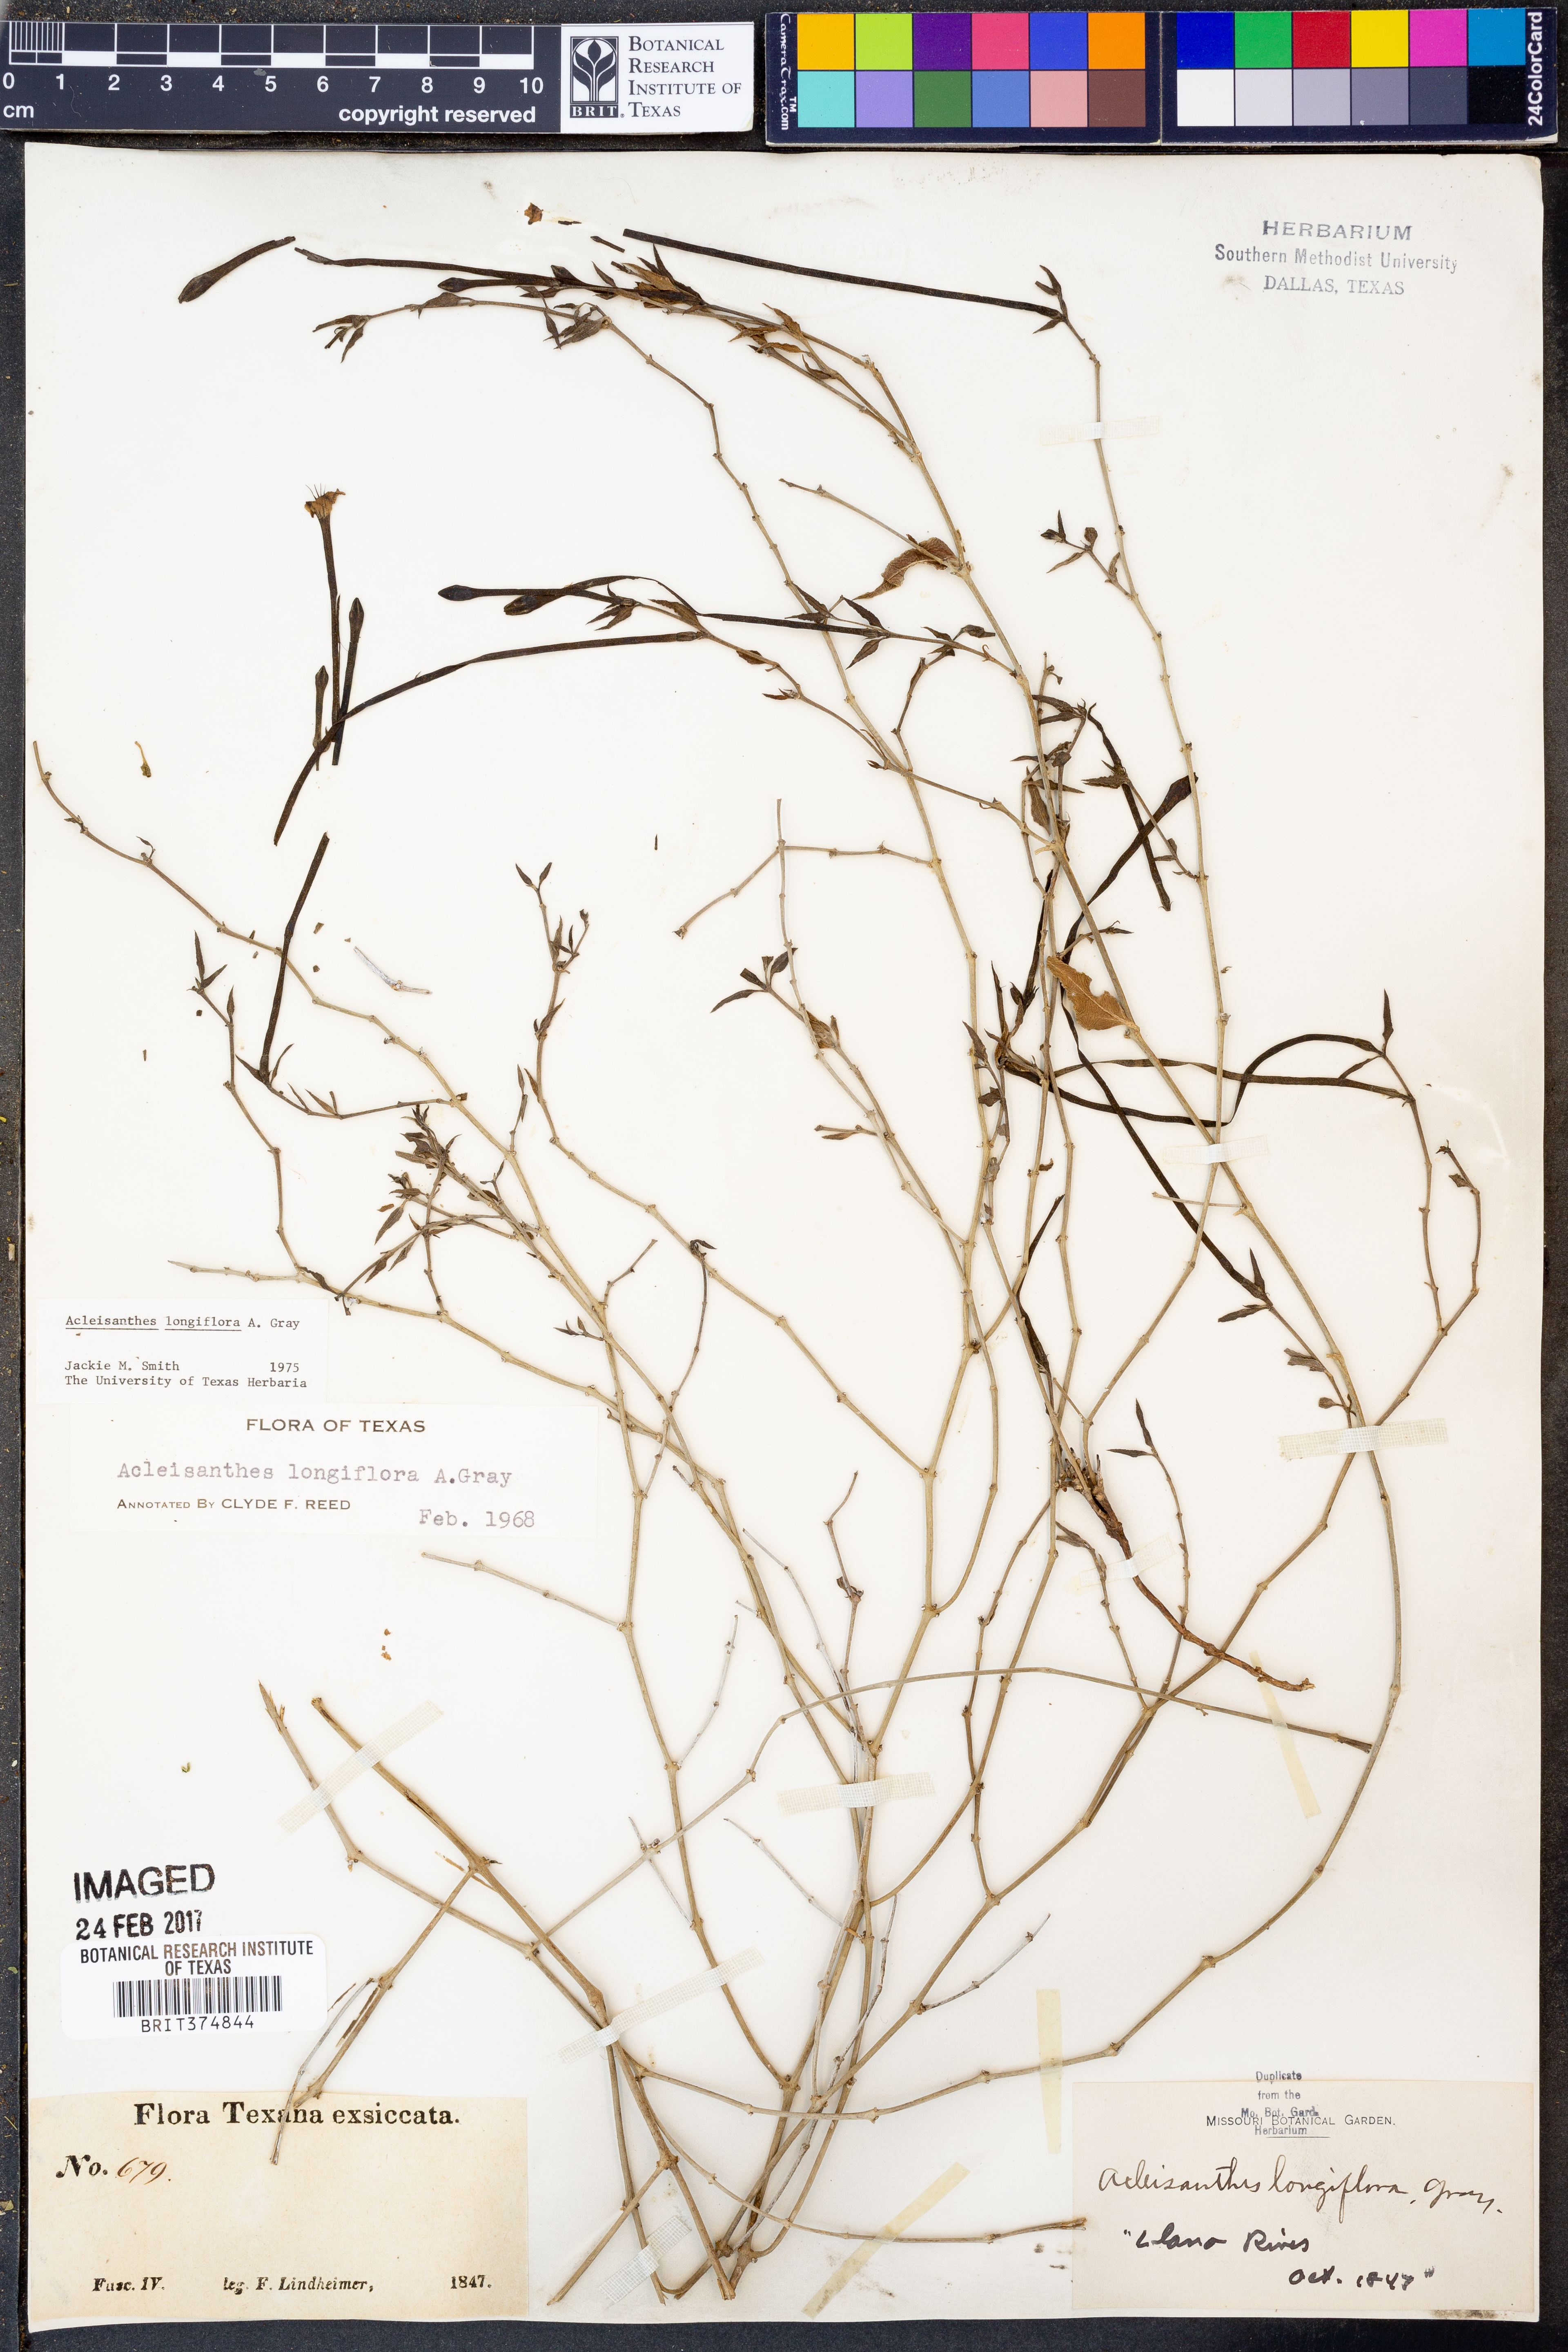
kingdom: Plantae
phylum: Tracheophyta
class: Magnoliopsida
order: Caryophyllales
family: Nyctaginaceae
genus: Acleisanthes
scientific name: Acleisanthes longiflora
